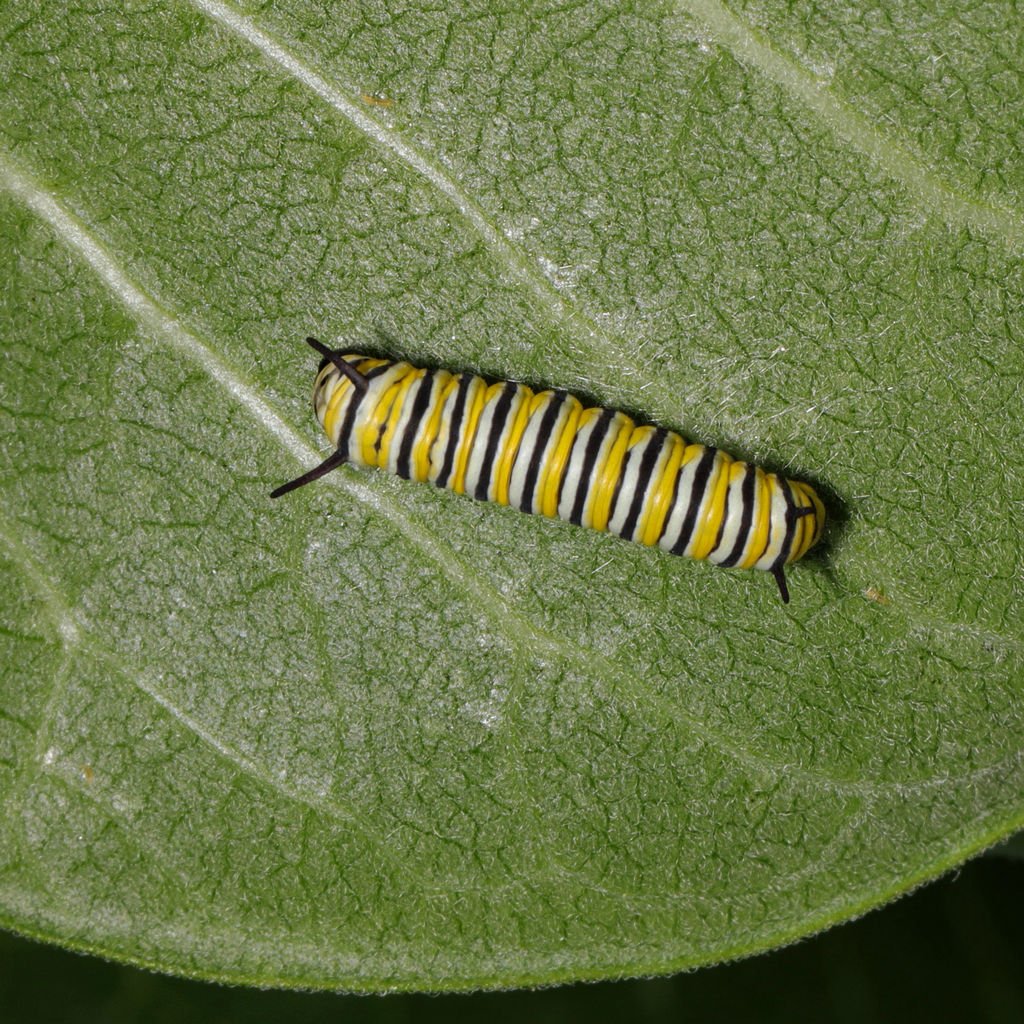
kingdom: Animalia
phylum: Arthropoda
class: Insecta
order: Lepidoptera
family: Nymphalidae
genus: Danaus
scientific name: Danaus plexippus
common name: Monarch
